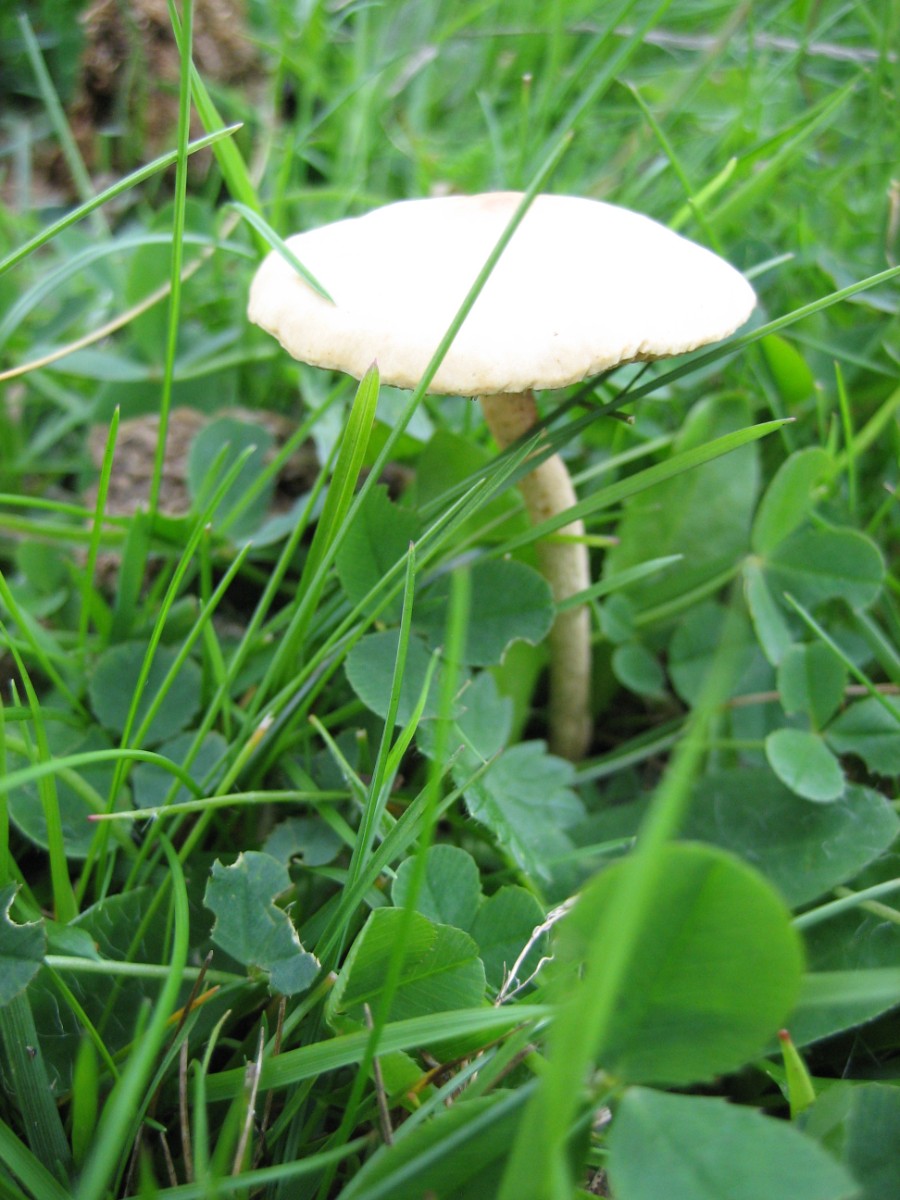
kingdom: Fungi
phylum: Basidiomycota
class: Agaricomycetes
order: Agaricales
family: Strophariaceae
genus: Agrocybe
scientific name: Agrocybe pediades
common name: almindelig agerhat
